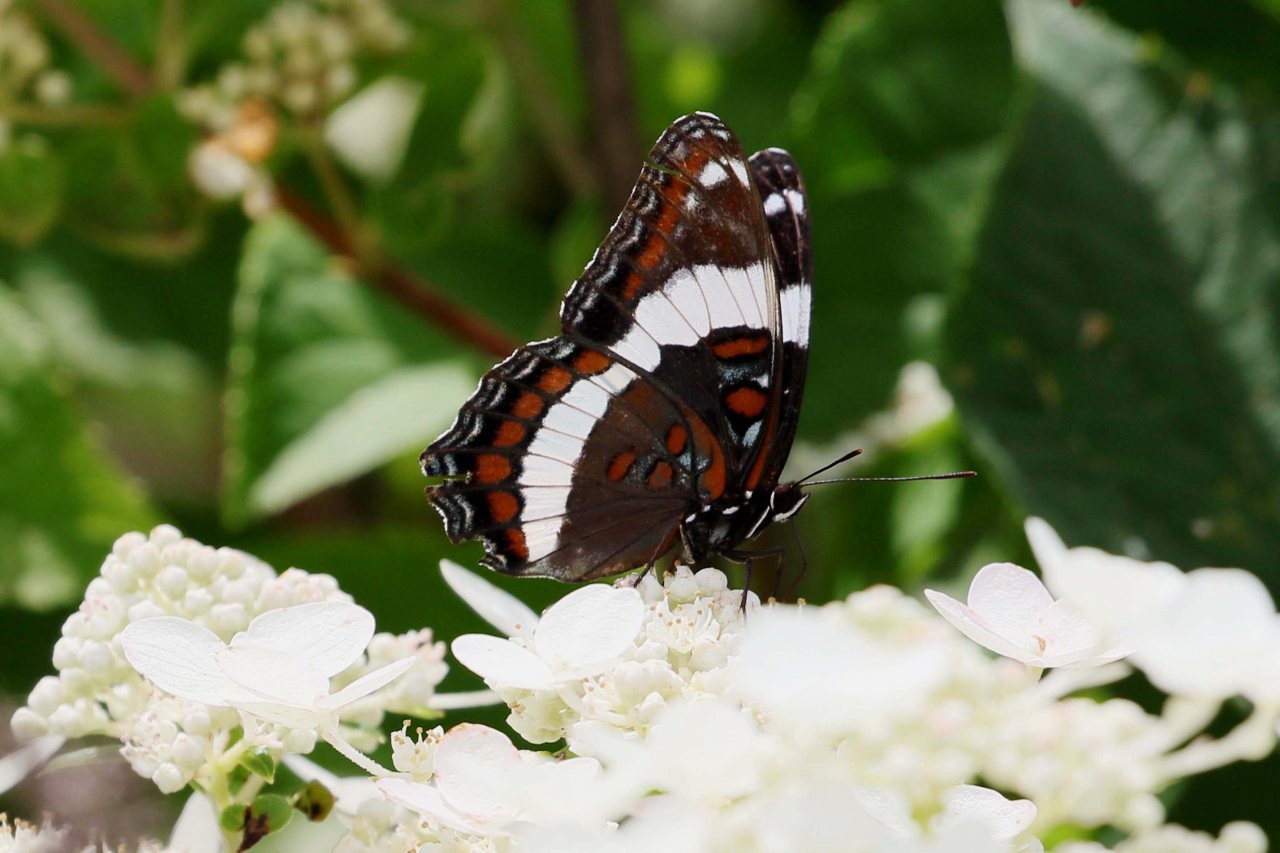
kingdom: Animalia
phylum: Arthropoda
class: Insecta
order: Lepidoptera
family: Nymphalidae
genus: Limenitis
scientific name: Limenitis arthemis
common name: Red-spotted Admiral
